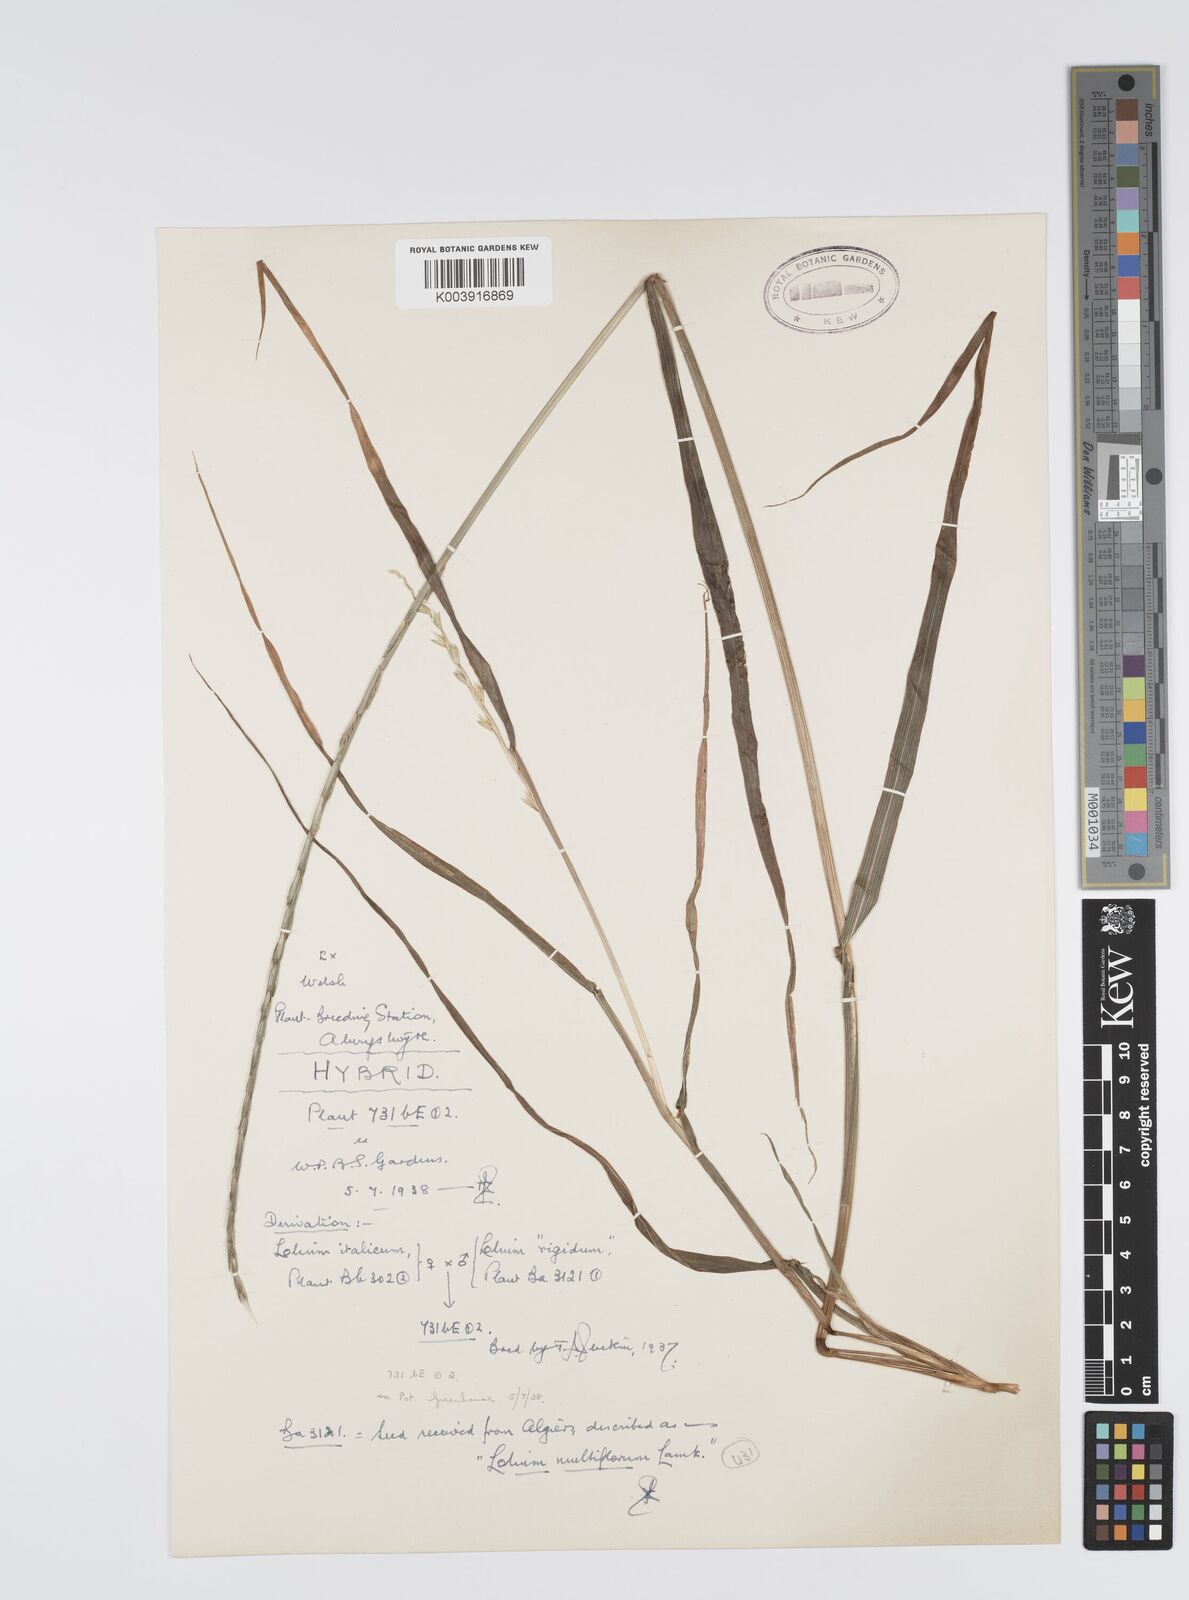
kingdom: Plantae
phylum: Tracheophyta
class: Liliopsida
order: Poales
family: Poaceae
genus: Lolium
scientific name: Lolium multiflorum
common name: Annual ryegrass
